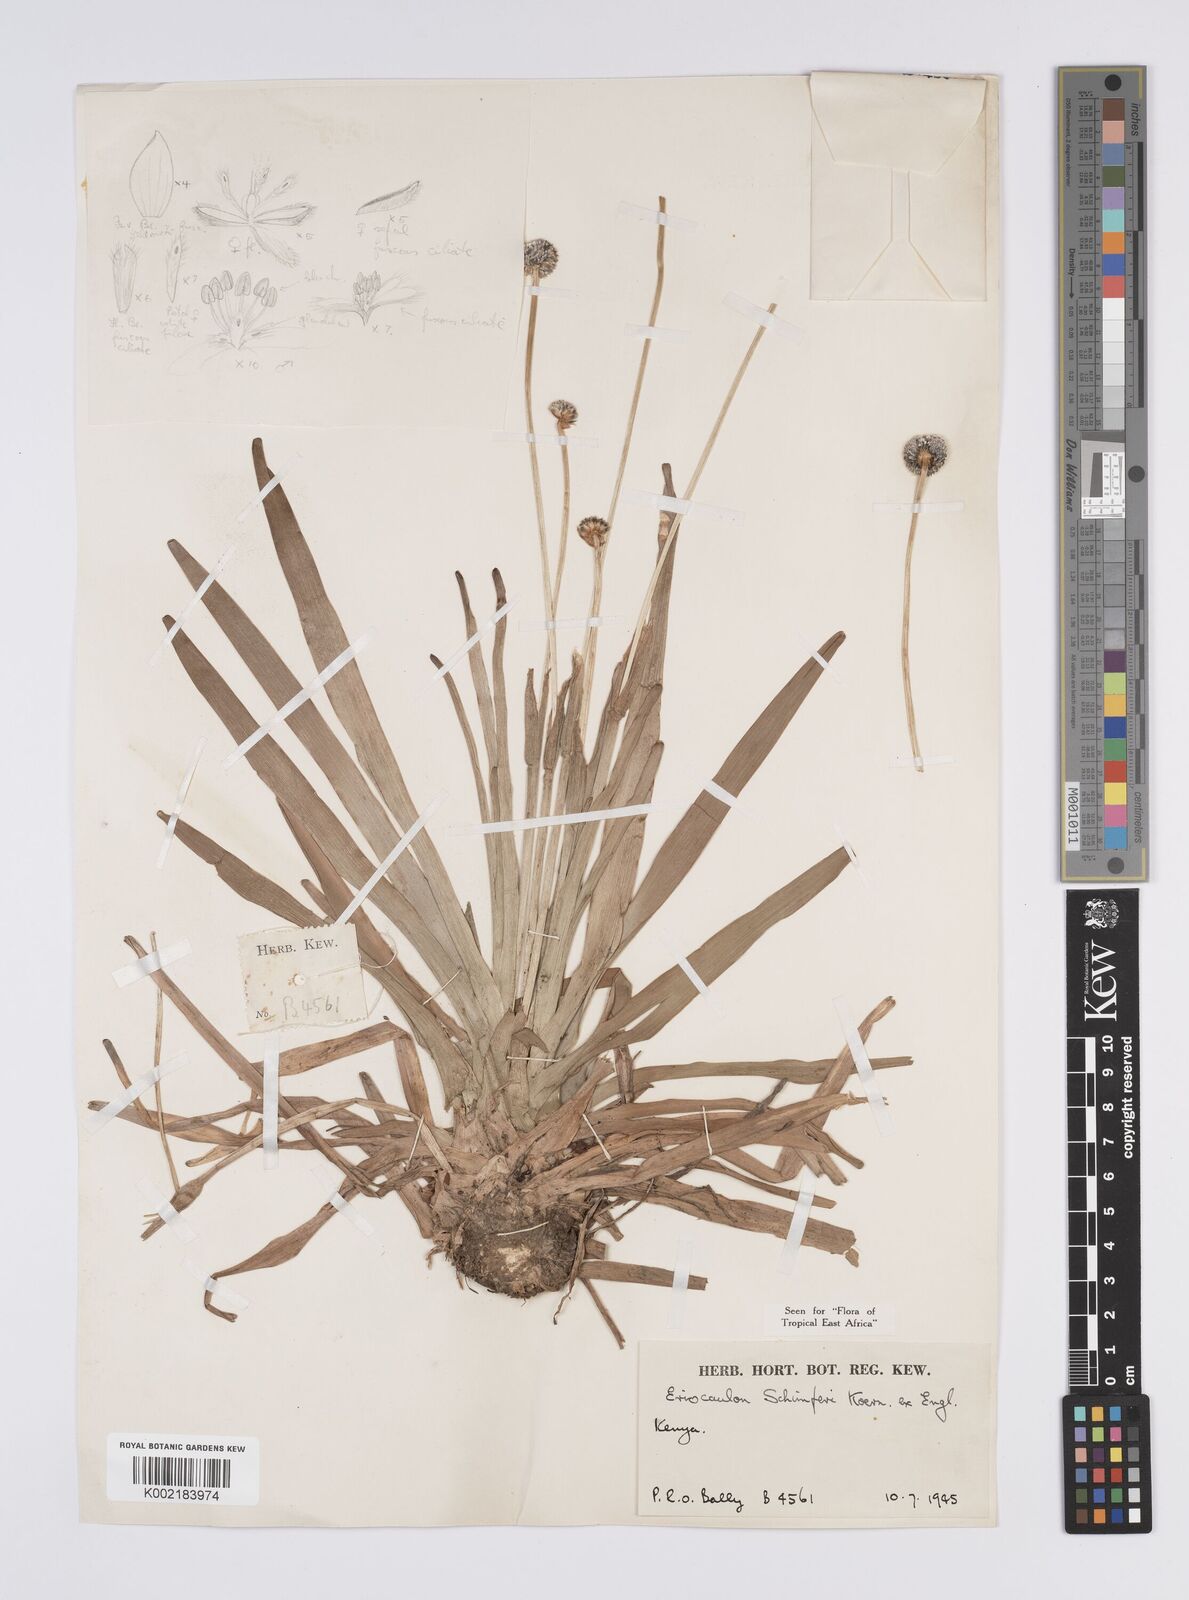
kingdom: Plantae
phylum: Tracheophyta
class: Liliopsida
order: Poales
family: Eriocaulaceae
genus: Eriocaulon
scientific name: Eriocaulon schimperi
